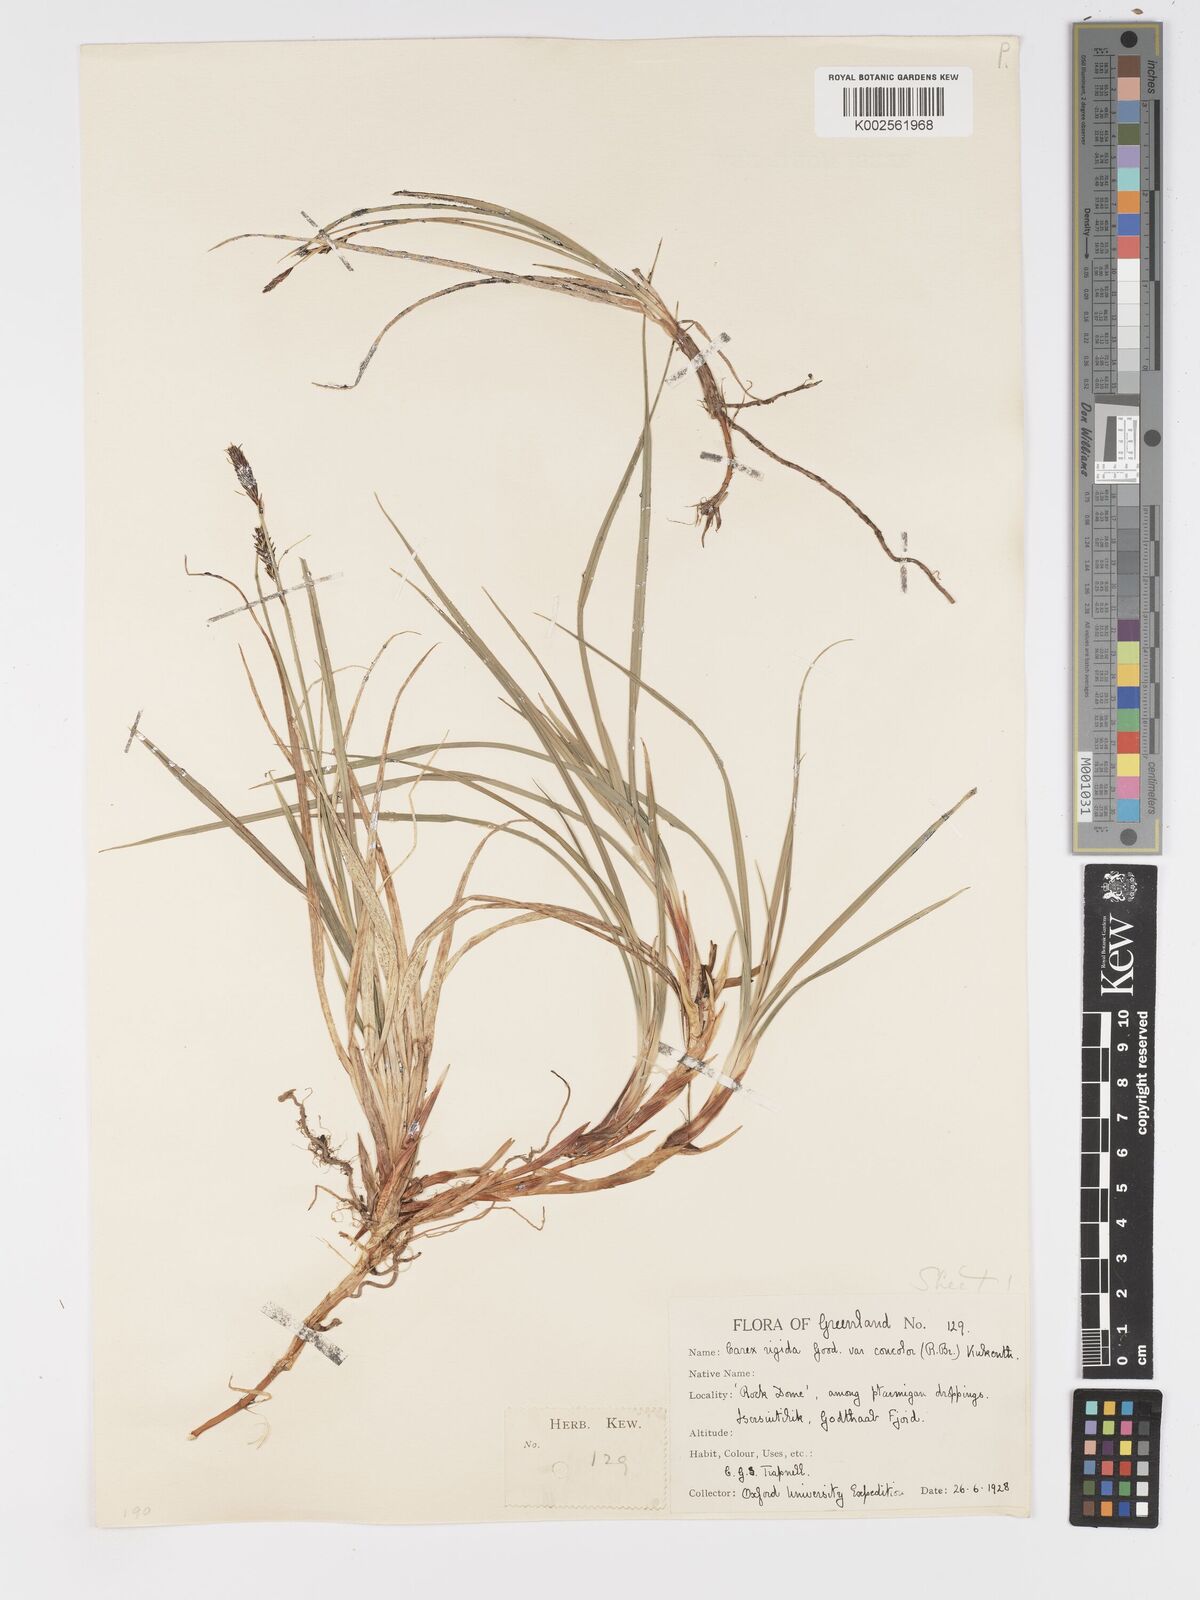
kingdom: Plantae
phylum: Tracheophyta
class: Liliopsida
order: Poales
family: Cyperaceae
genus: Carex
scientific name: Carex bigelowii
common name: Stiff sedge
